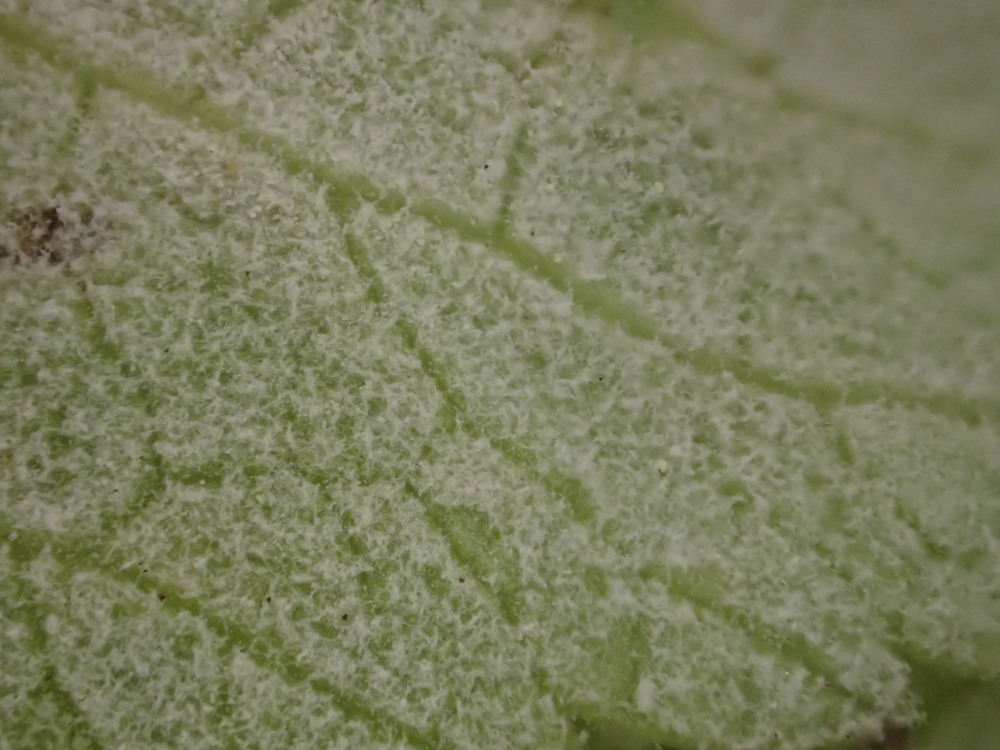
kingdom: Chromista
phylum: Oomycota
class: Peronosporea
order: Peronosporales
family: Peronosporaceae
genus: Peronospora
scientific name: Peronospora crustosa
